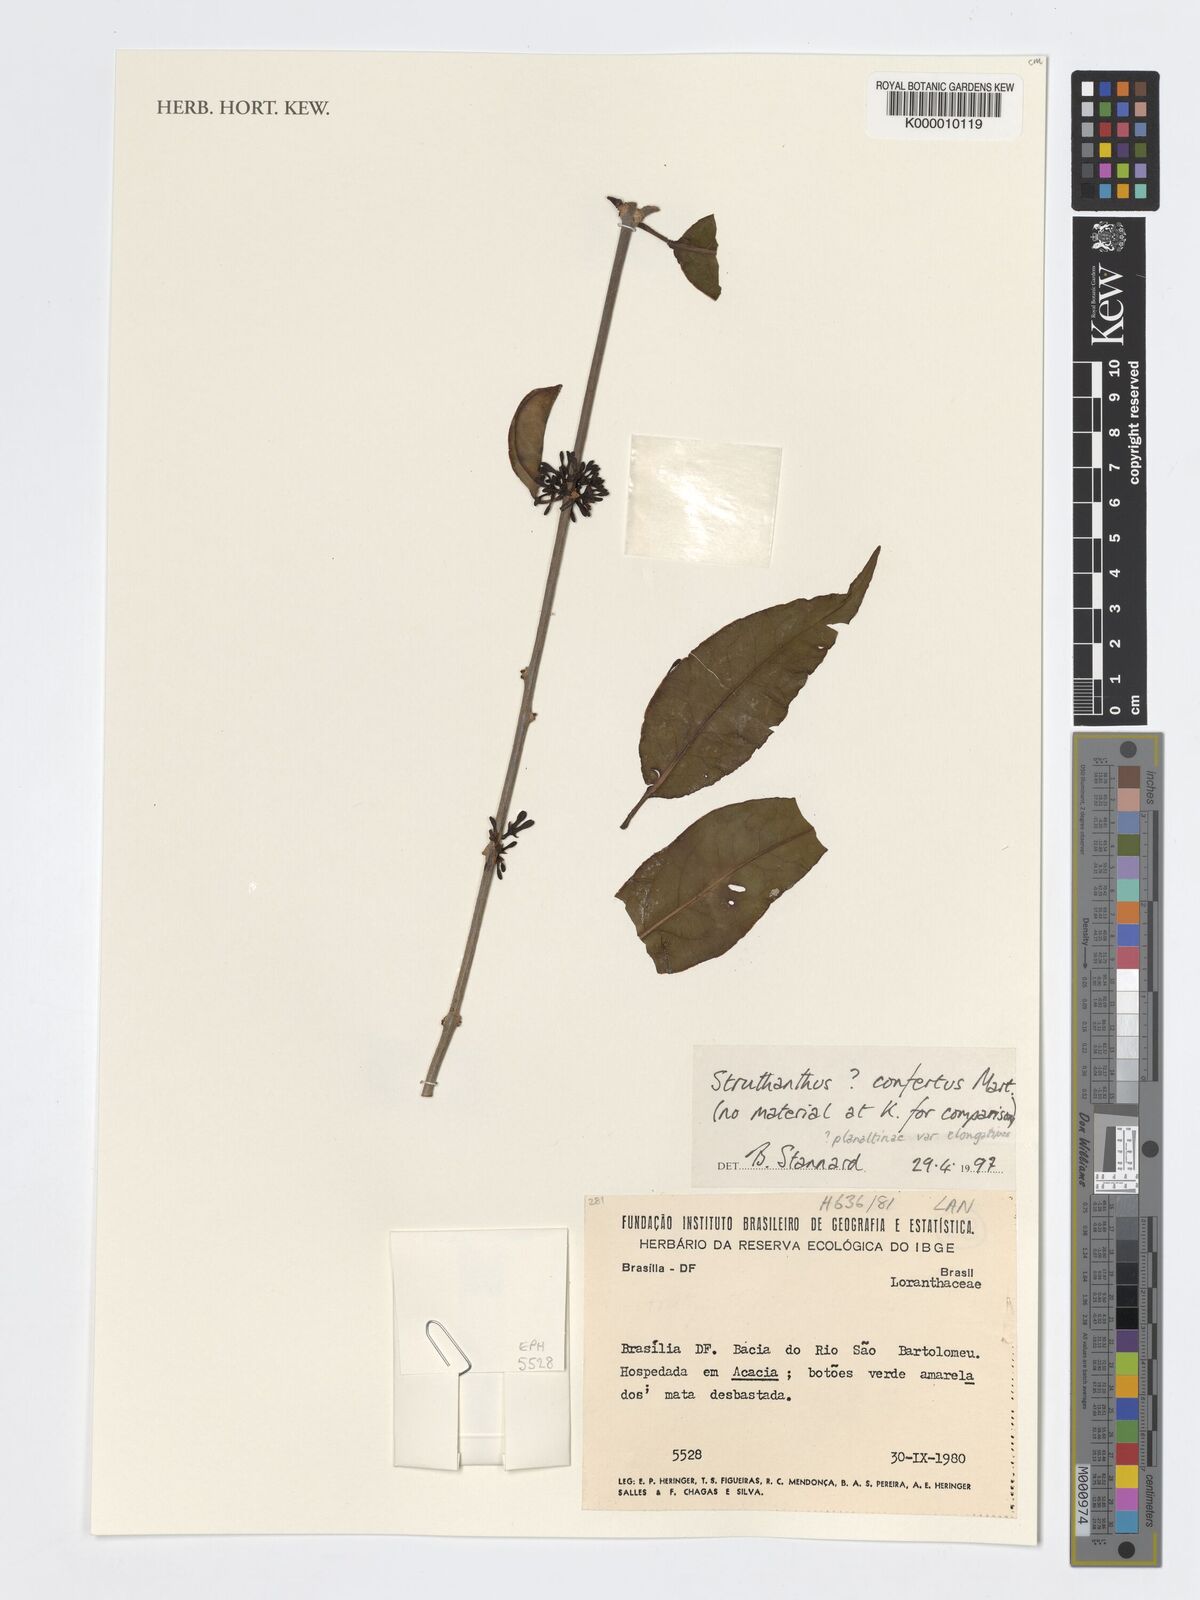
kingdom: Plantae
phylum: Tracheophyta
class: Magnoliopsida
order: Santalales
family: Loranthaceae
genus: Struthanthus
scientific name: Struthanthus confertus
